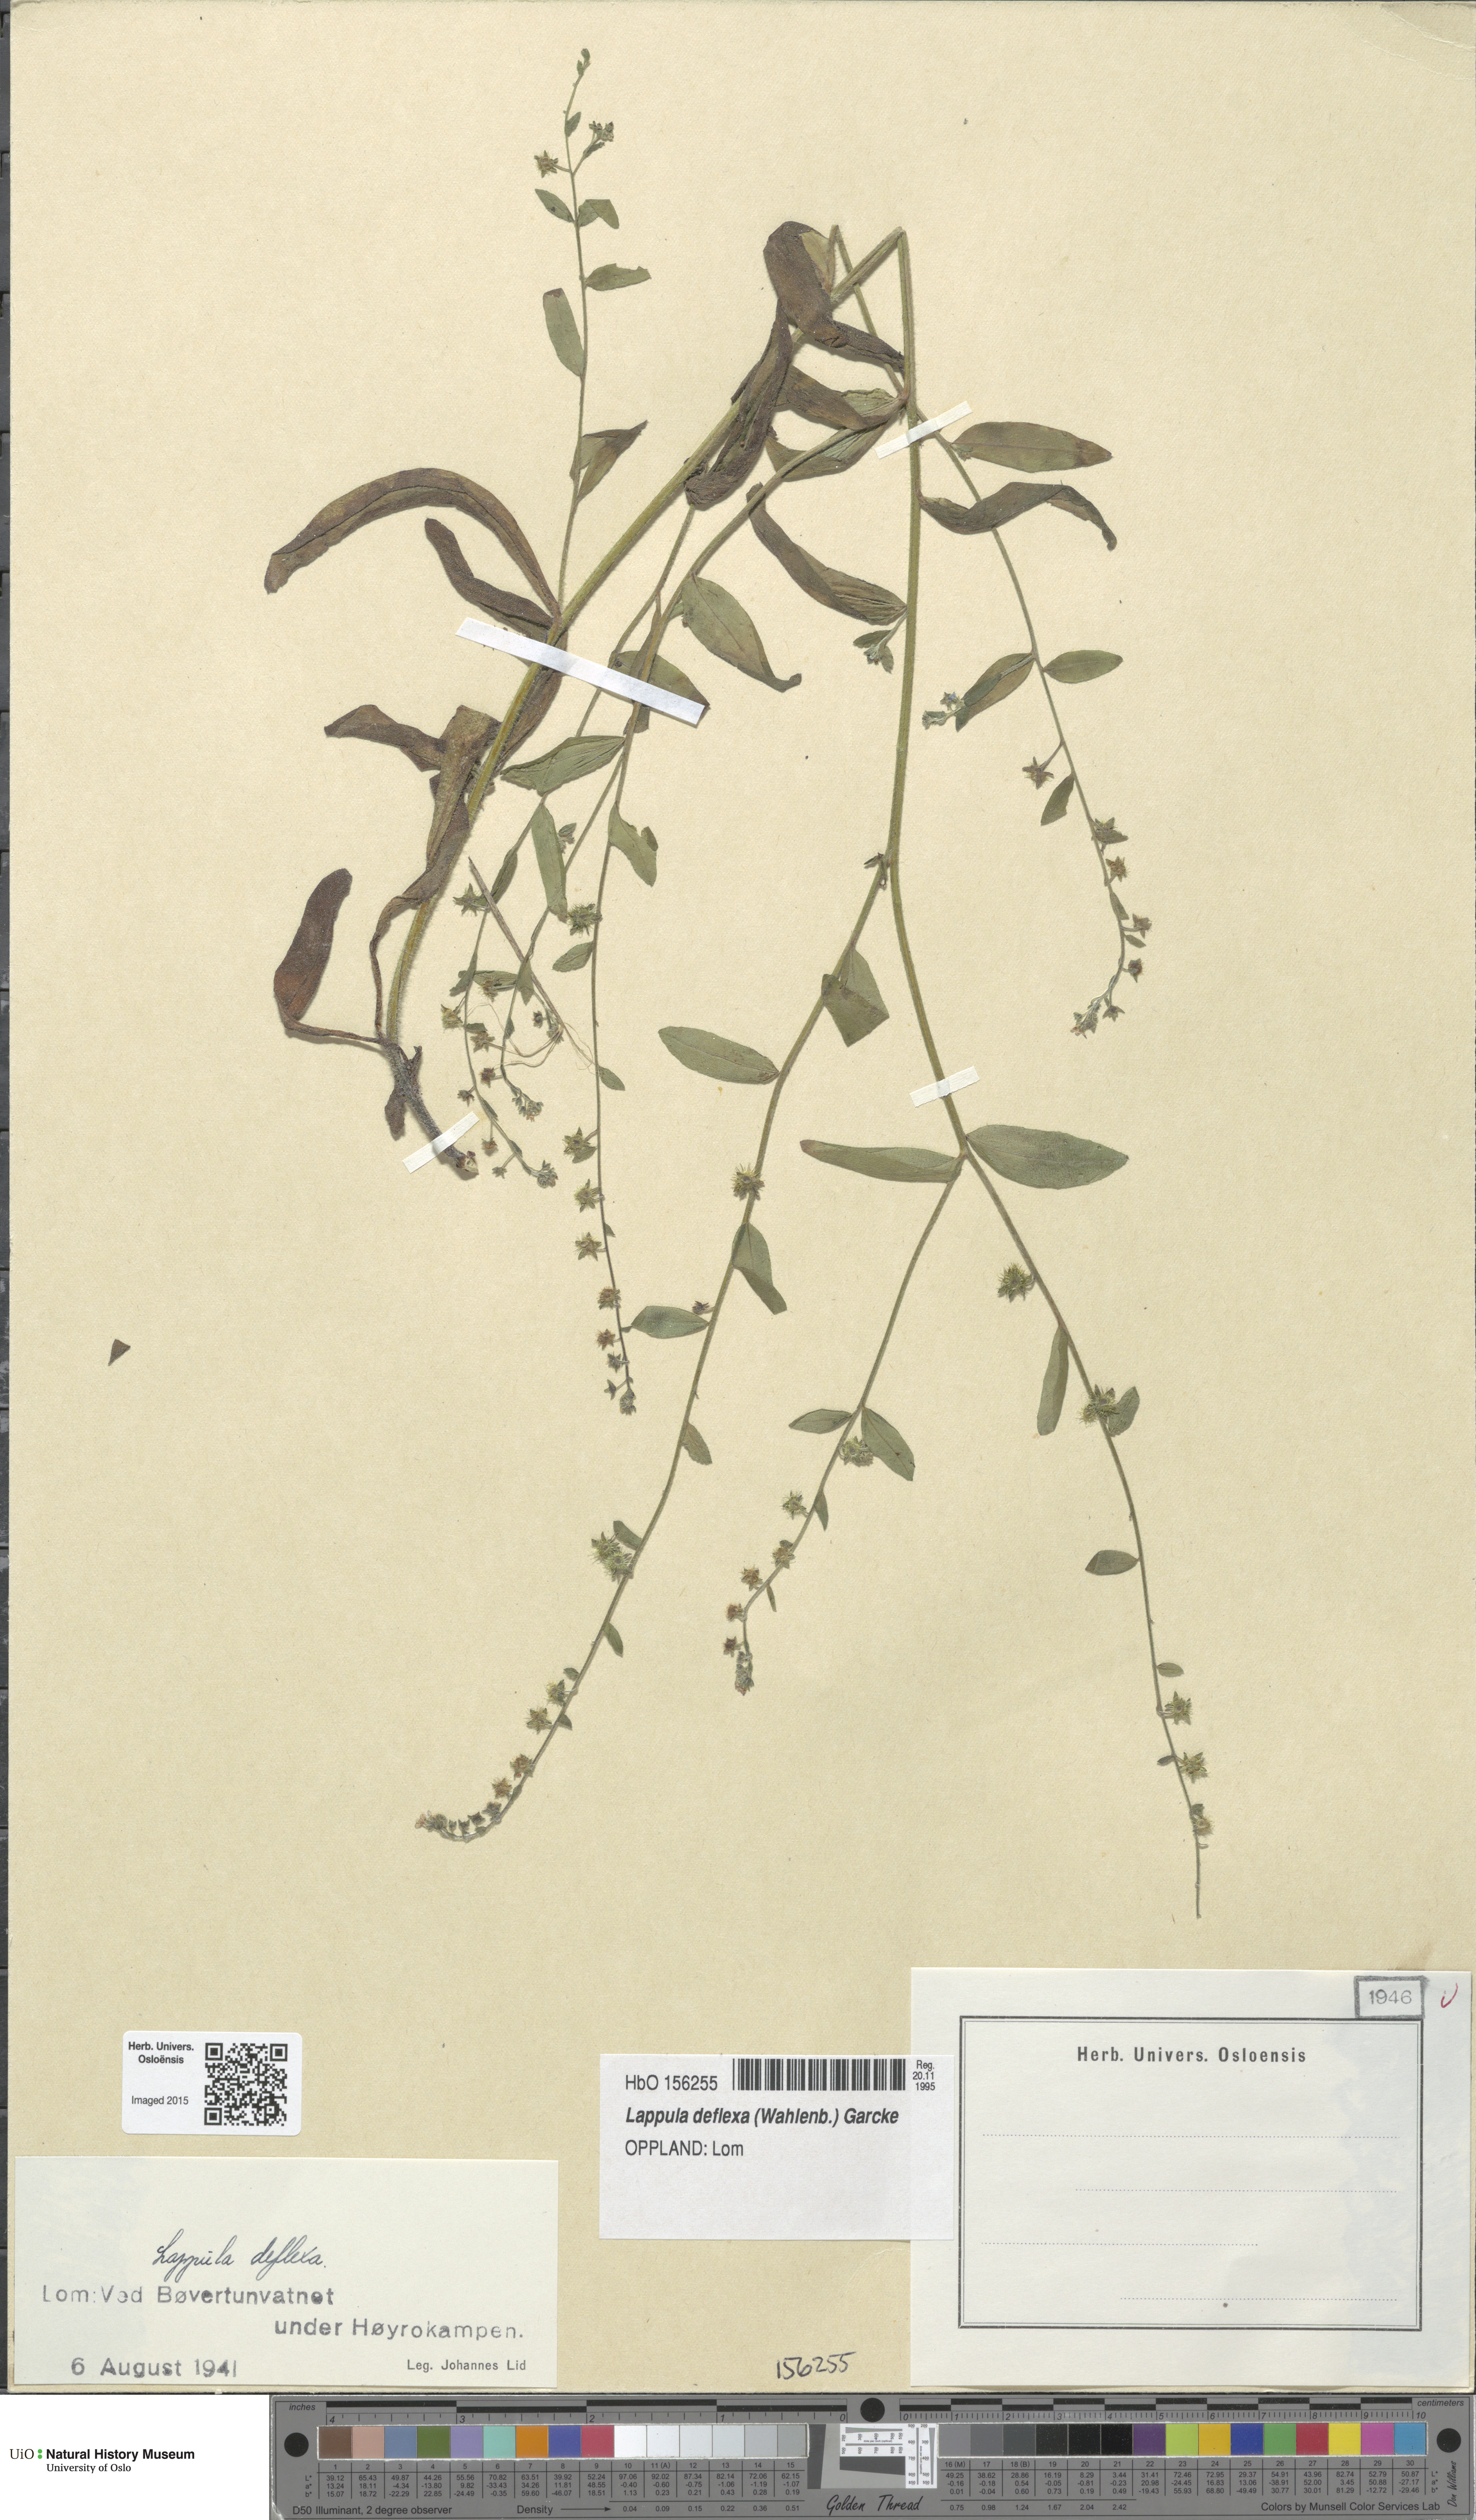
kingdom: Plantae
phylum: Tracheophyta
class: Magnoliopsida
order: Boraginales
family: Boraginaceae
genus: Hackelia
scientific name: Hackelia deflexa
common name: Nodding stickseed
